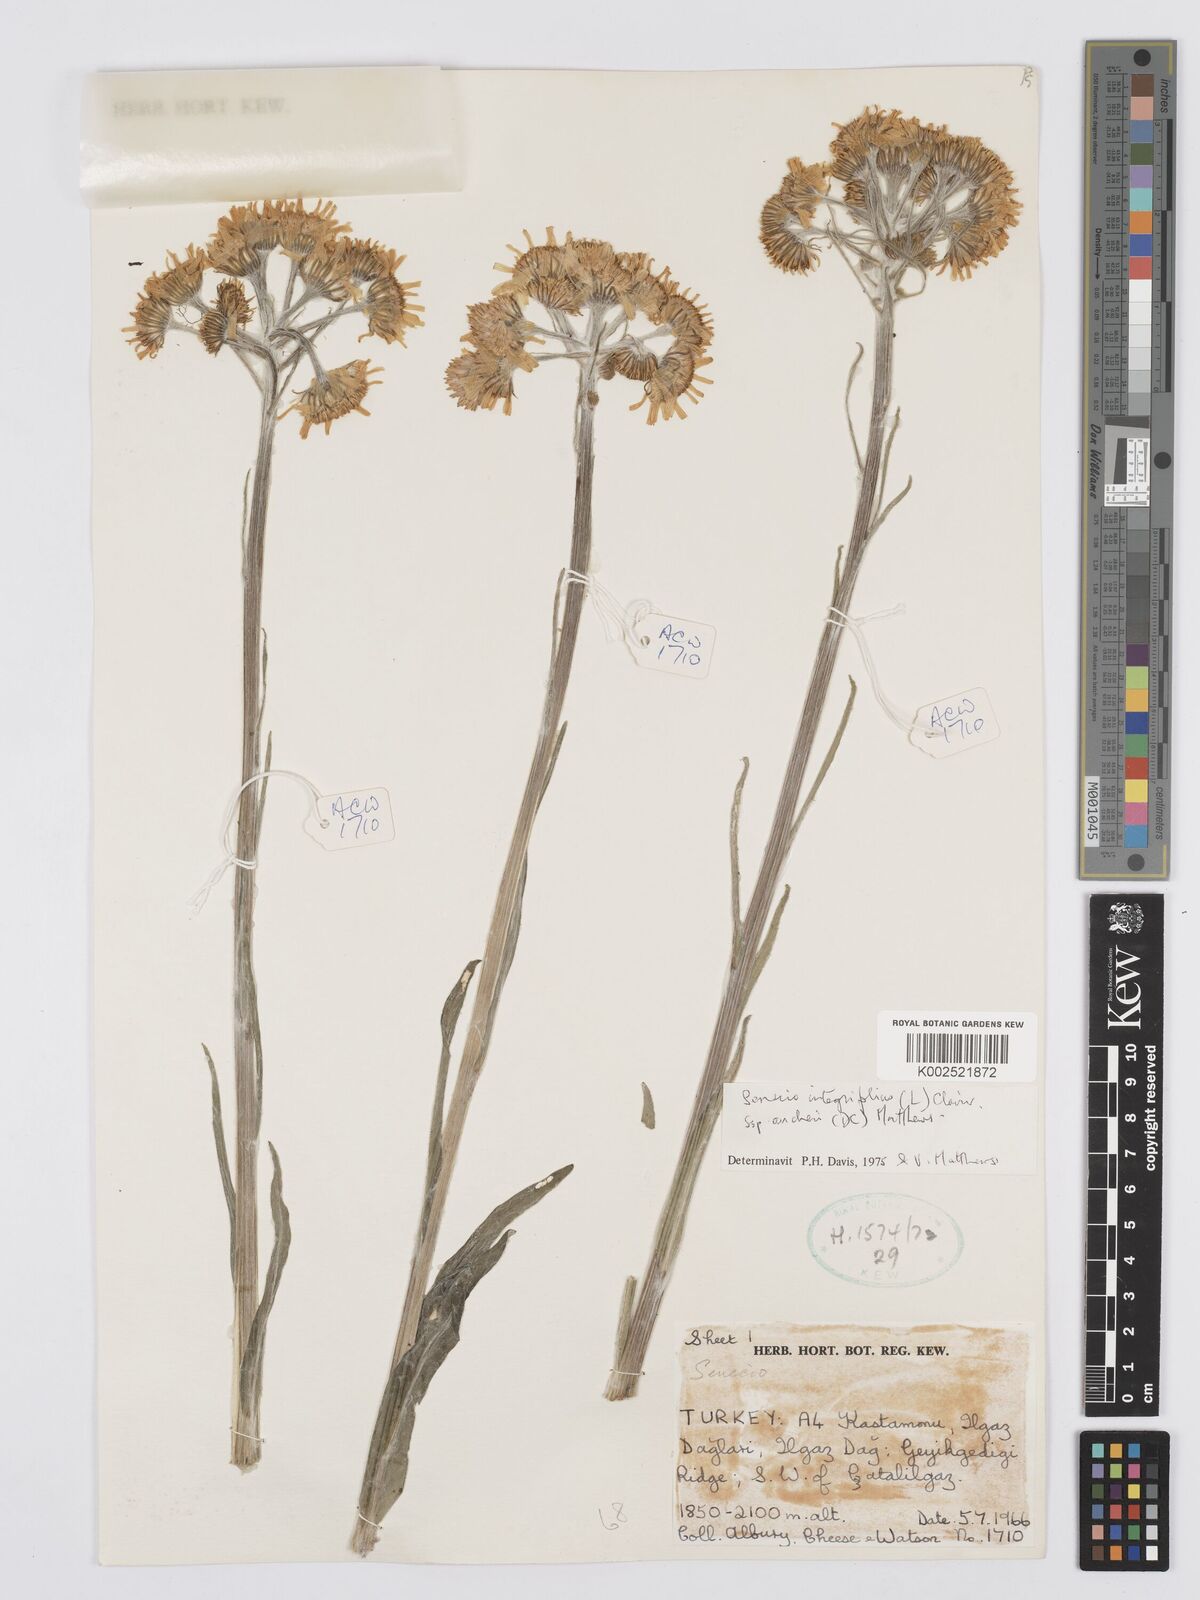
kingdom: Plantae
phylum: Tracheophyta
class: Magnoliopsida
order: Asterales
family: Asteraceae
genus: Tephroseris
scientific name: Tephroseris papposa
